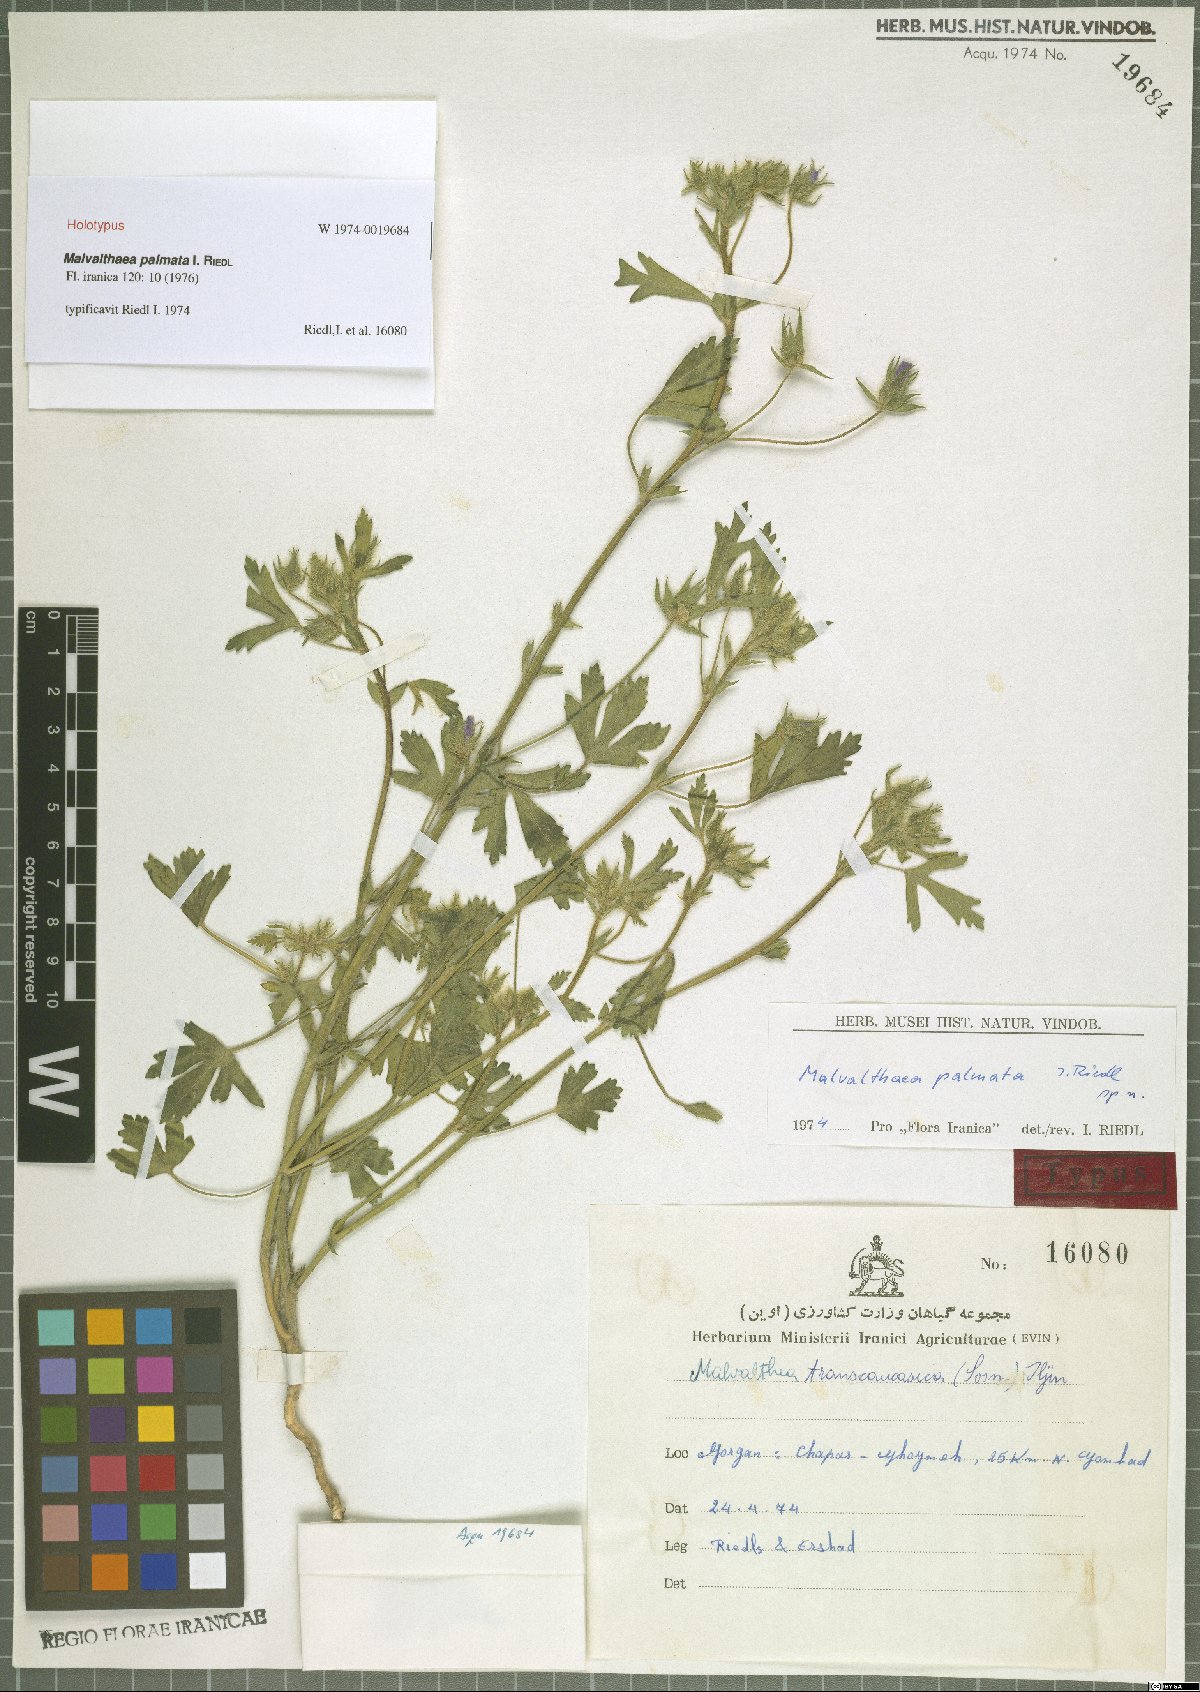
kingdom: Plantae
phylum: Tracheophyta
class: Magnoliopsida
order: Malvales
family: Malvaceae
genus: Malvalthaea
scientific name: Malvalthaea palmata
